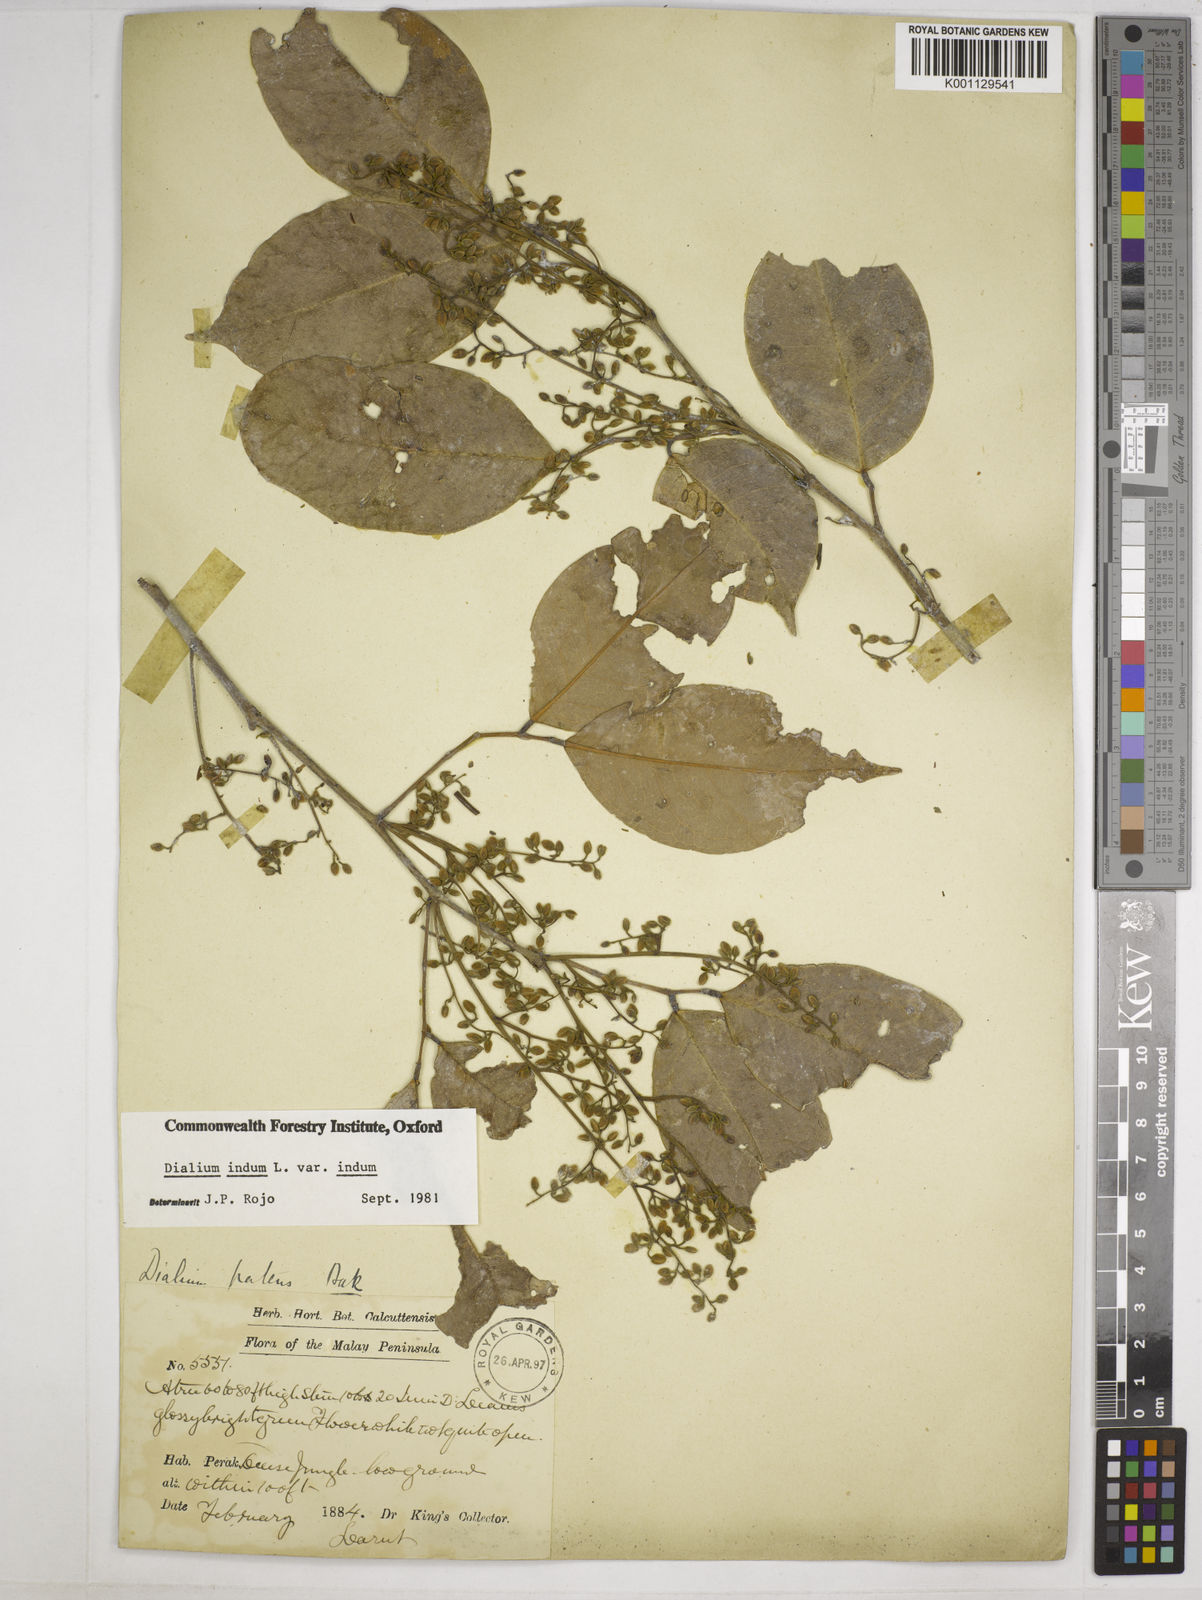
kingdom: Plantae
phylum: Tracheophyta
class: Magnoliopsida
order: Fabales
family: Fabaceae
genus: Dialium
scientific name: Dialium indum
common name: Tamarind-plum
